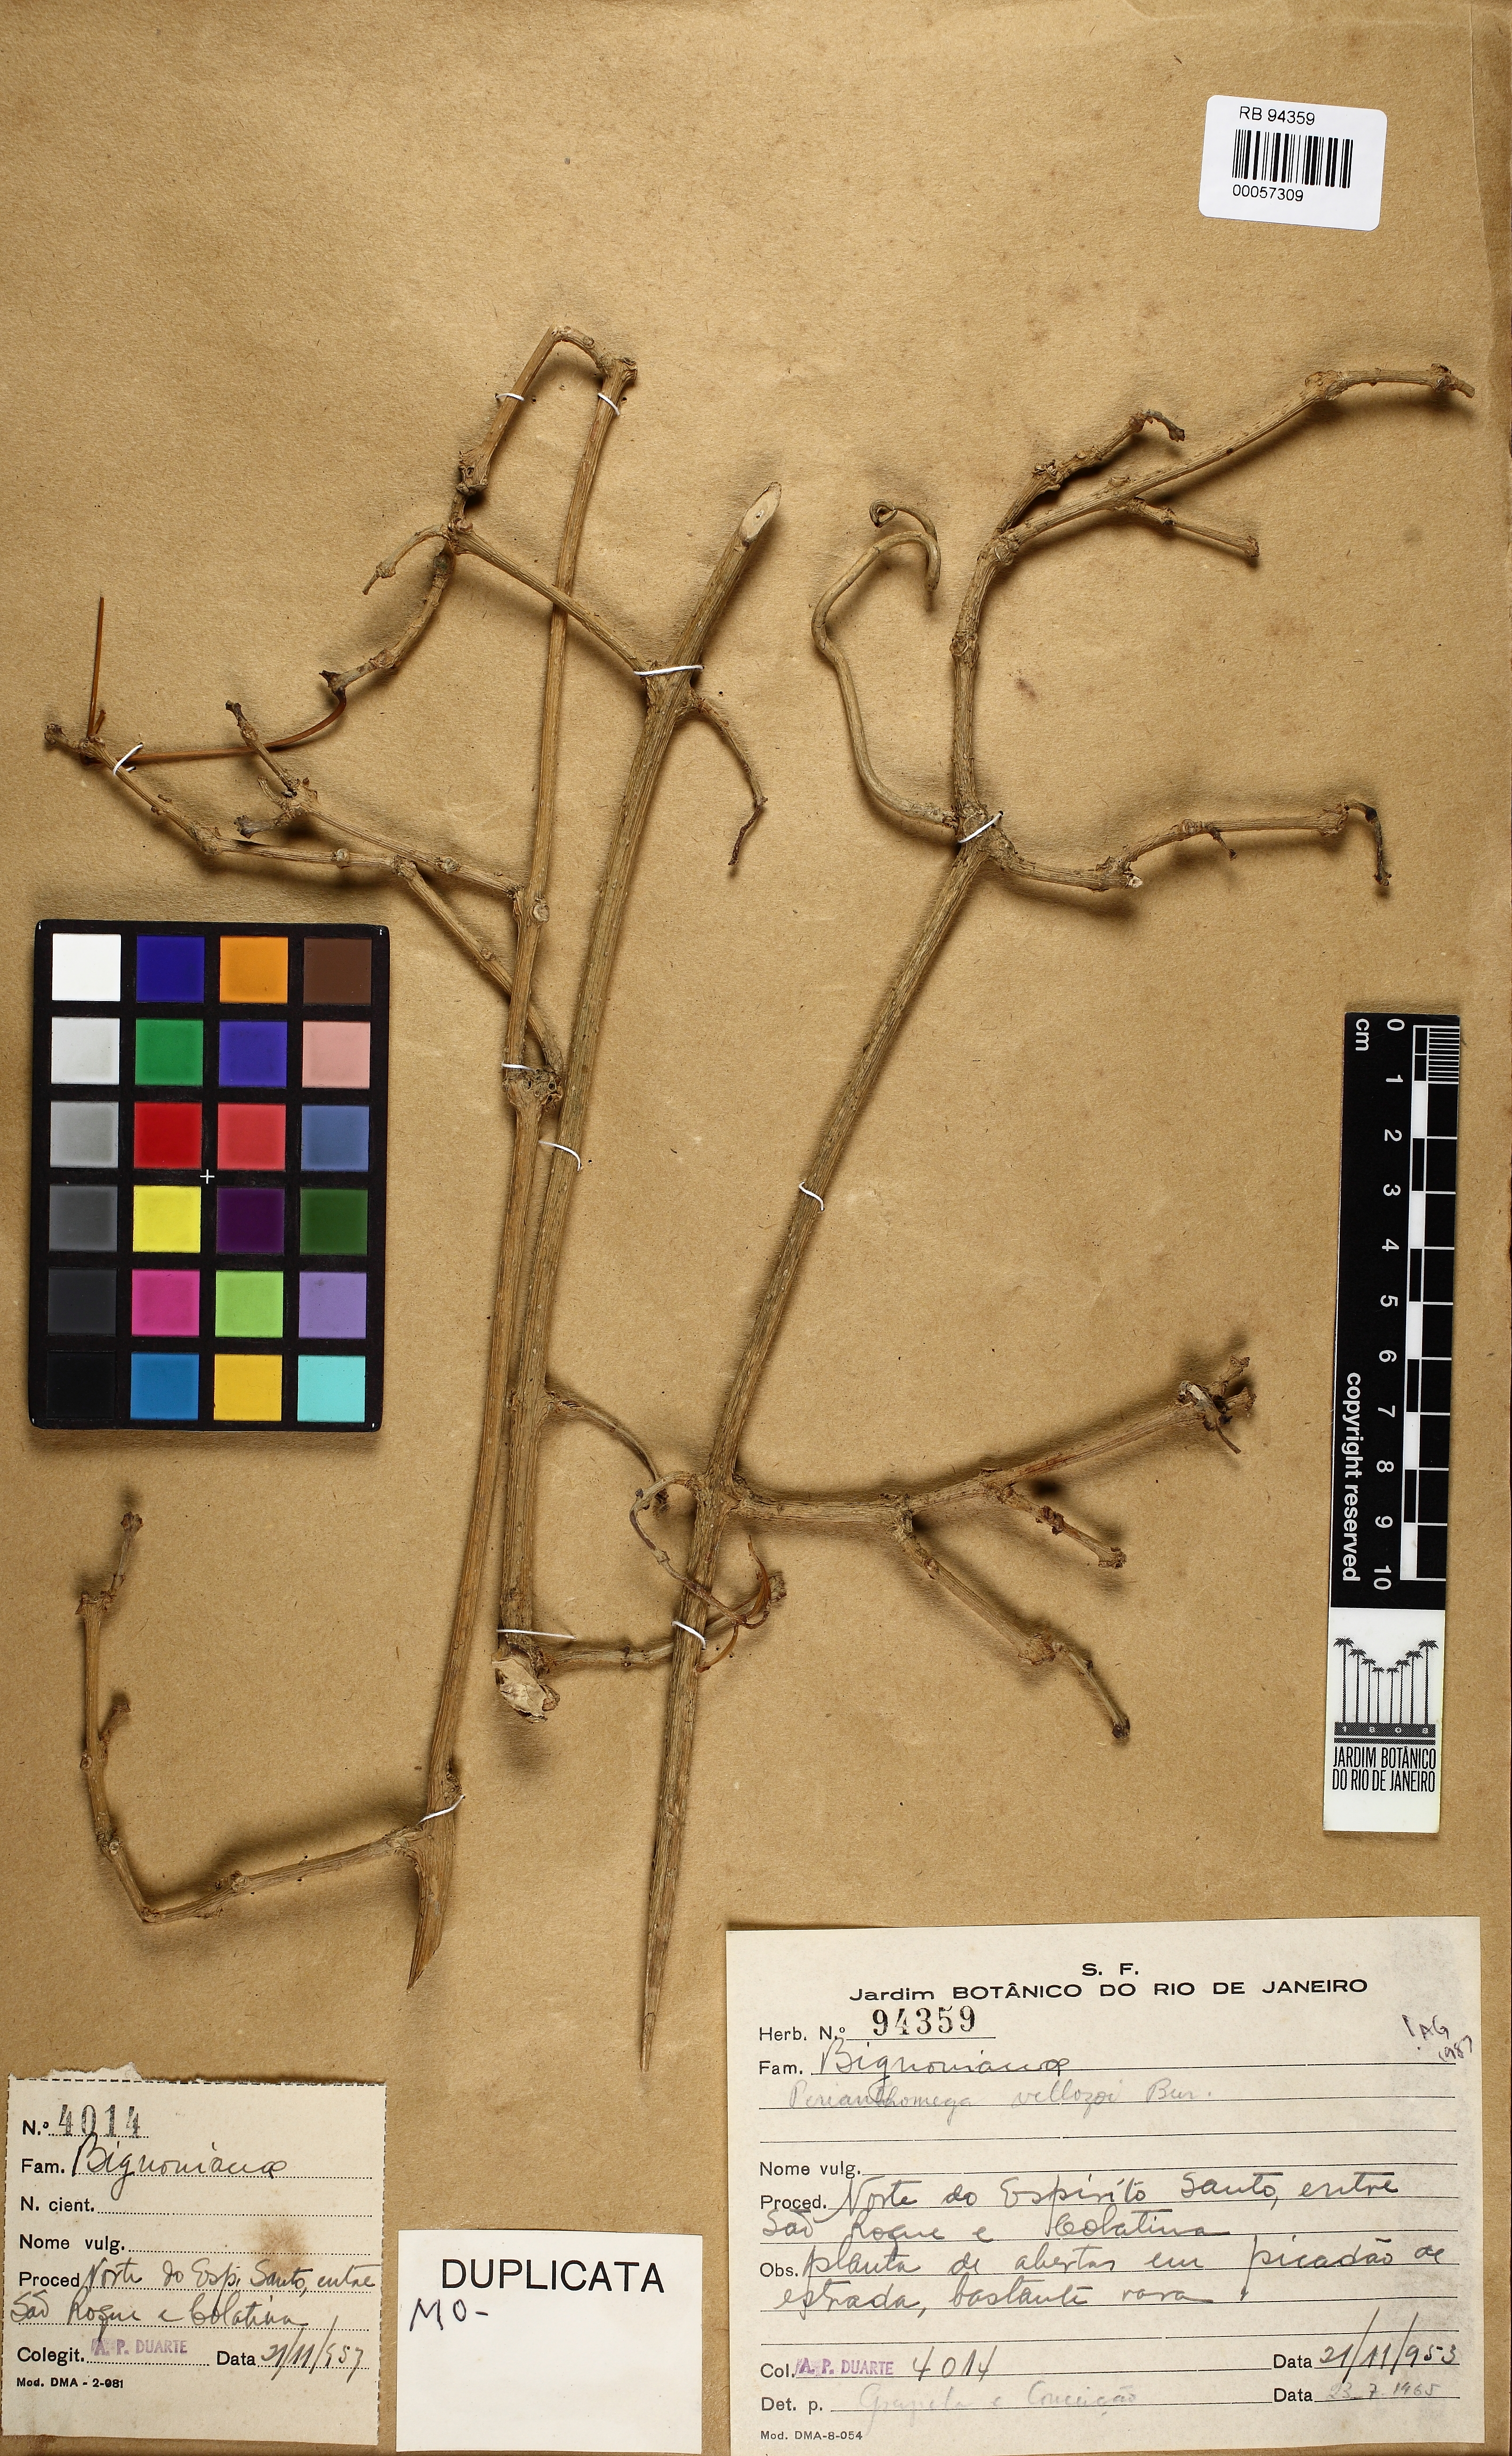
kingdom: Plantae
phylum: Tracheophyta
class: Magnoliopsida
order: Lamiales
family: Bignoniaceae
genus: Perianthomega
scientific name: Perianthomega vellozoi
